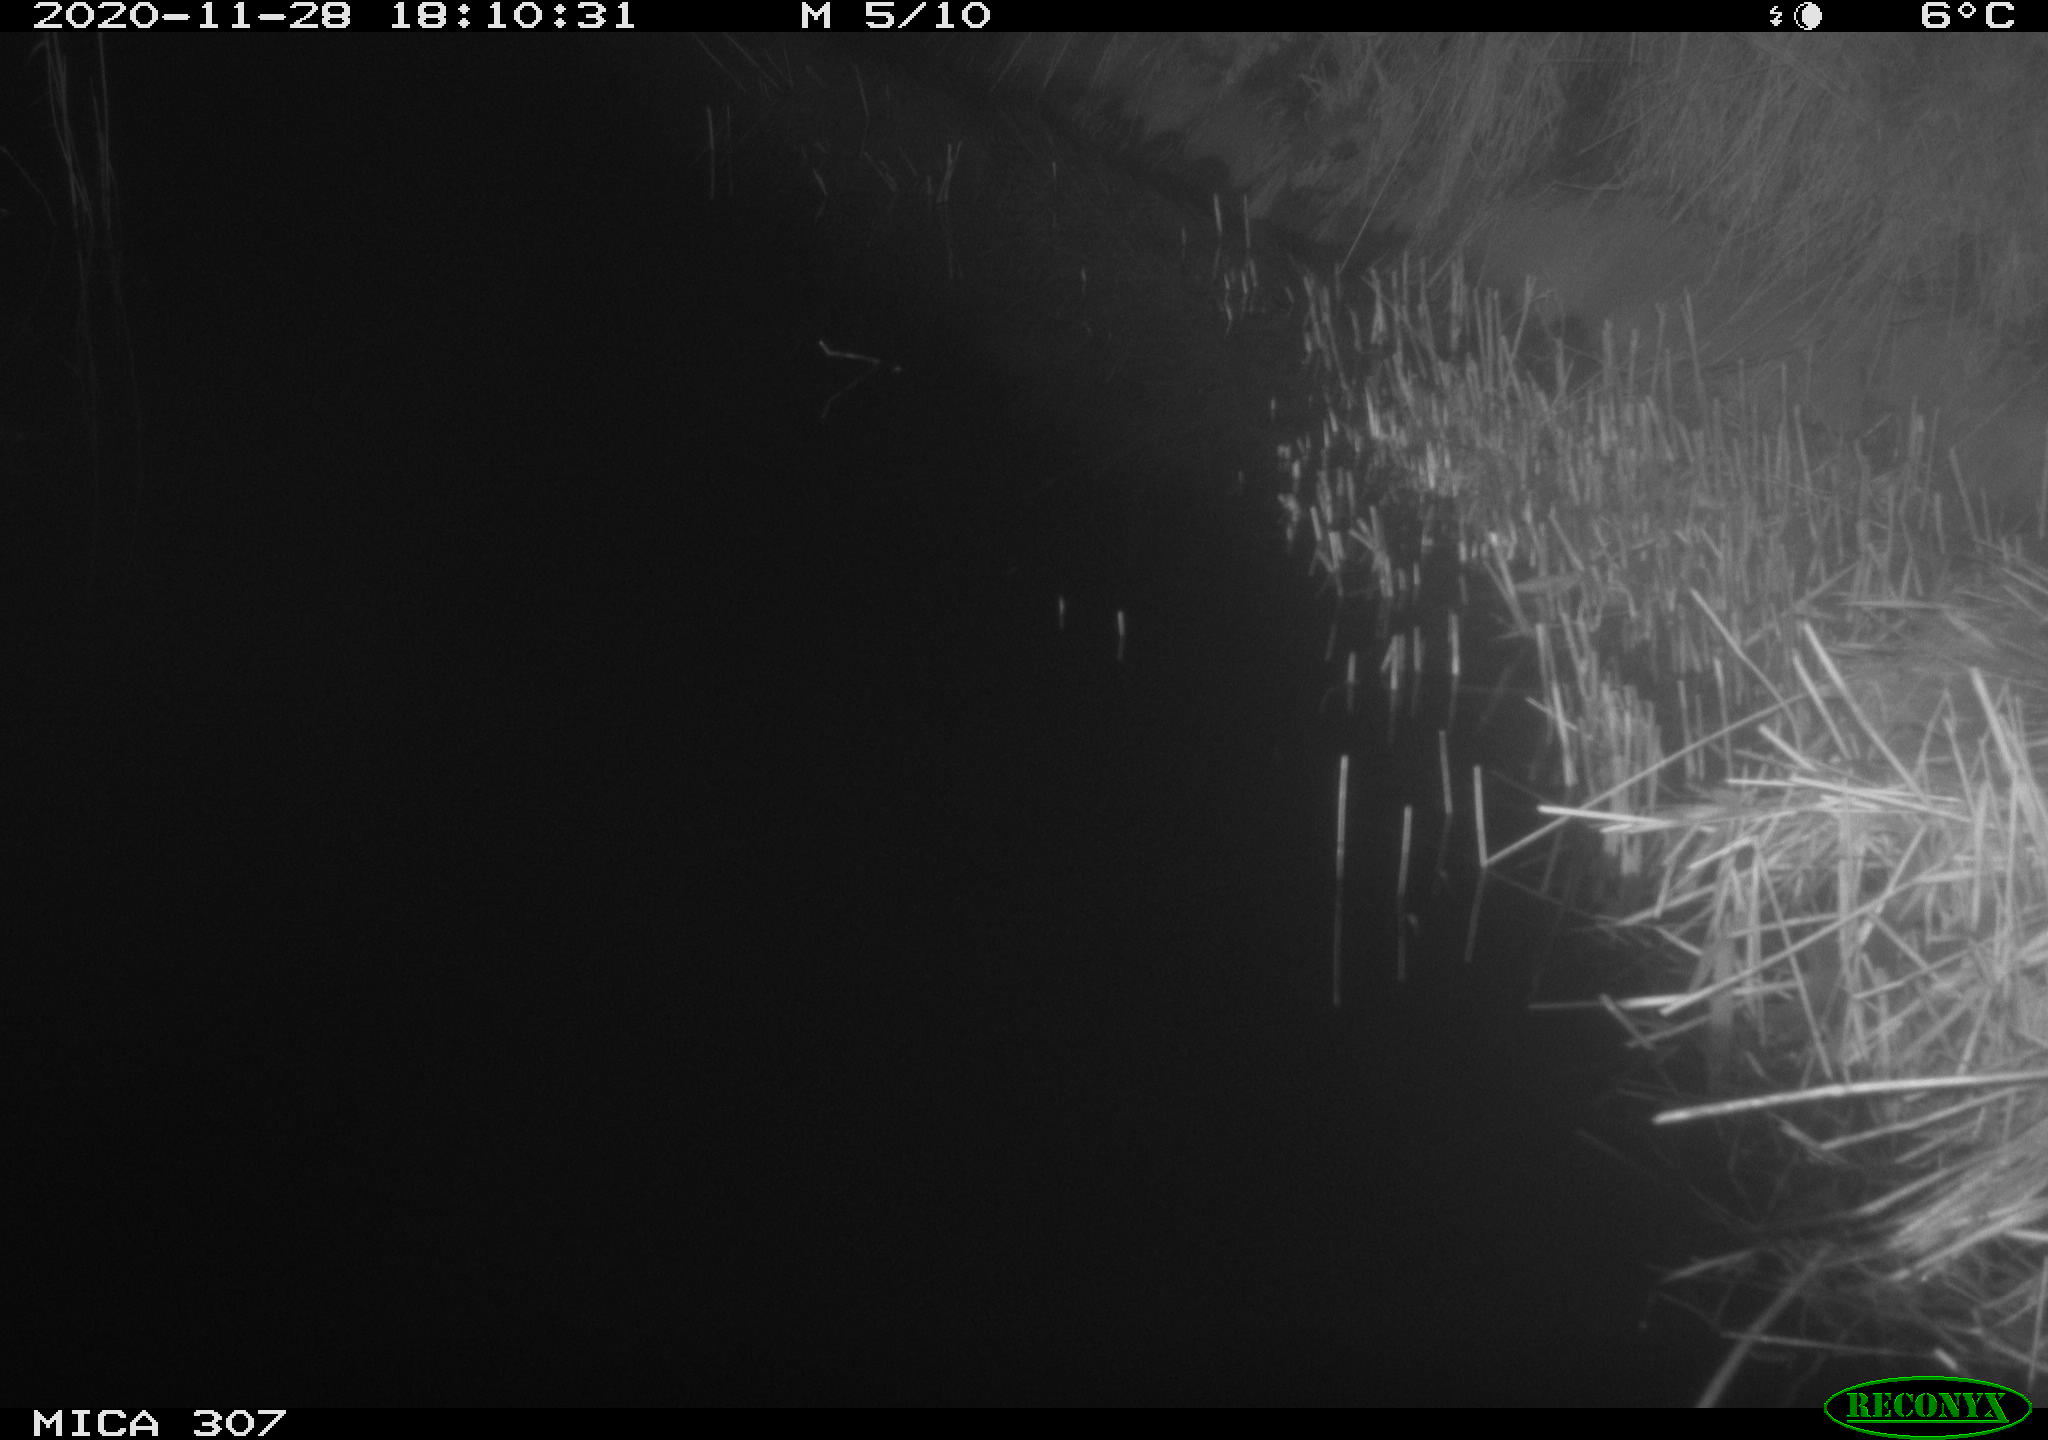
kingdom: Animalia
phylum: Chordata
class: Mammalia
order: Rodentia
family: Muridae
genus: Rattus
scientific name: Rattus norvegicus
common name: Brown rat
